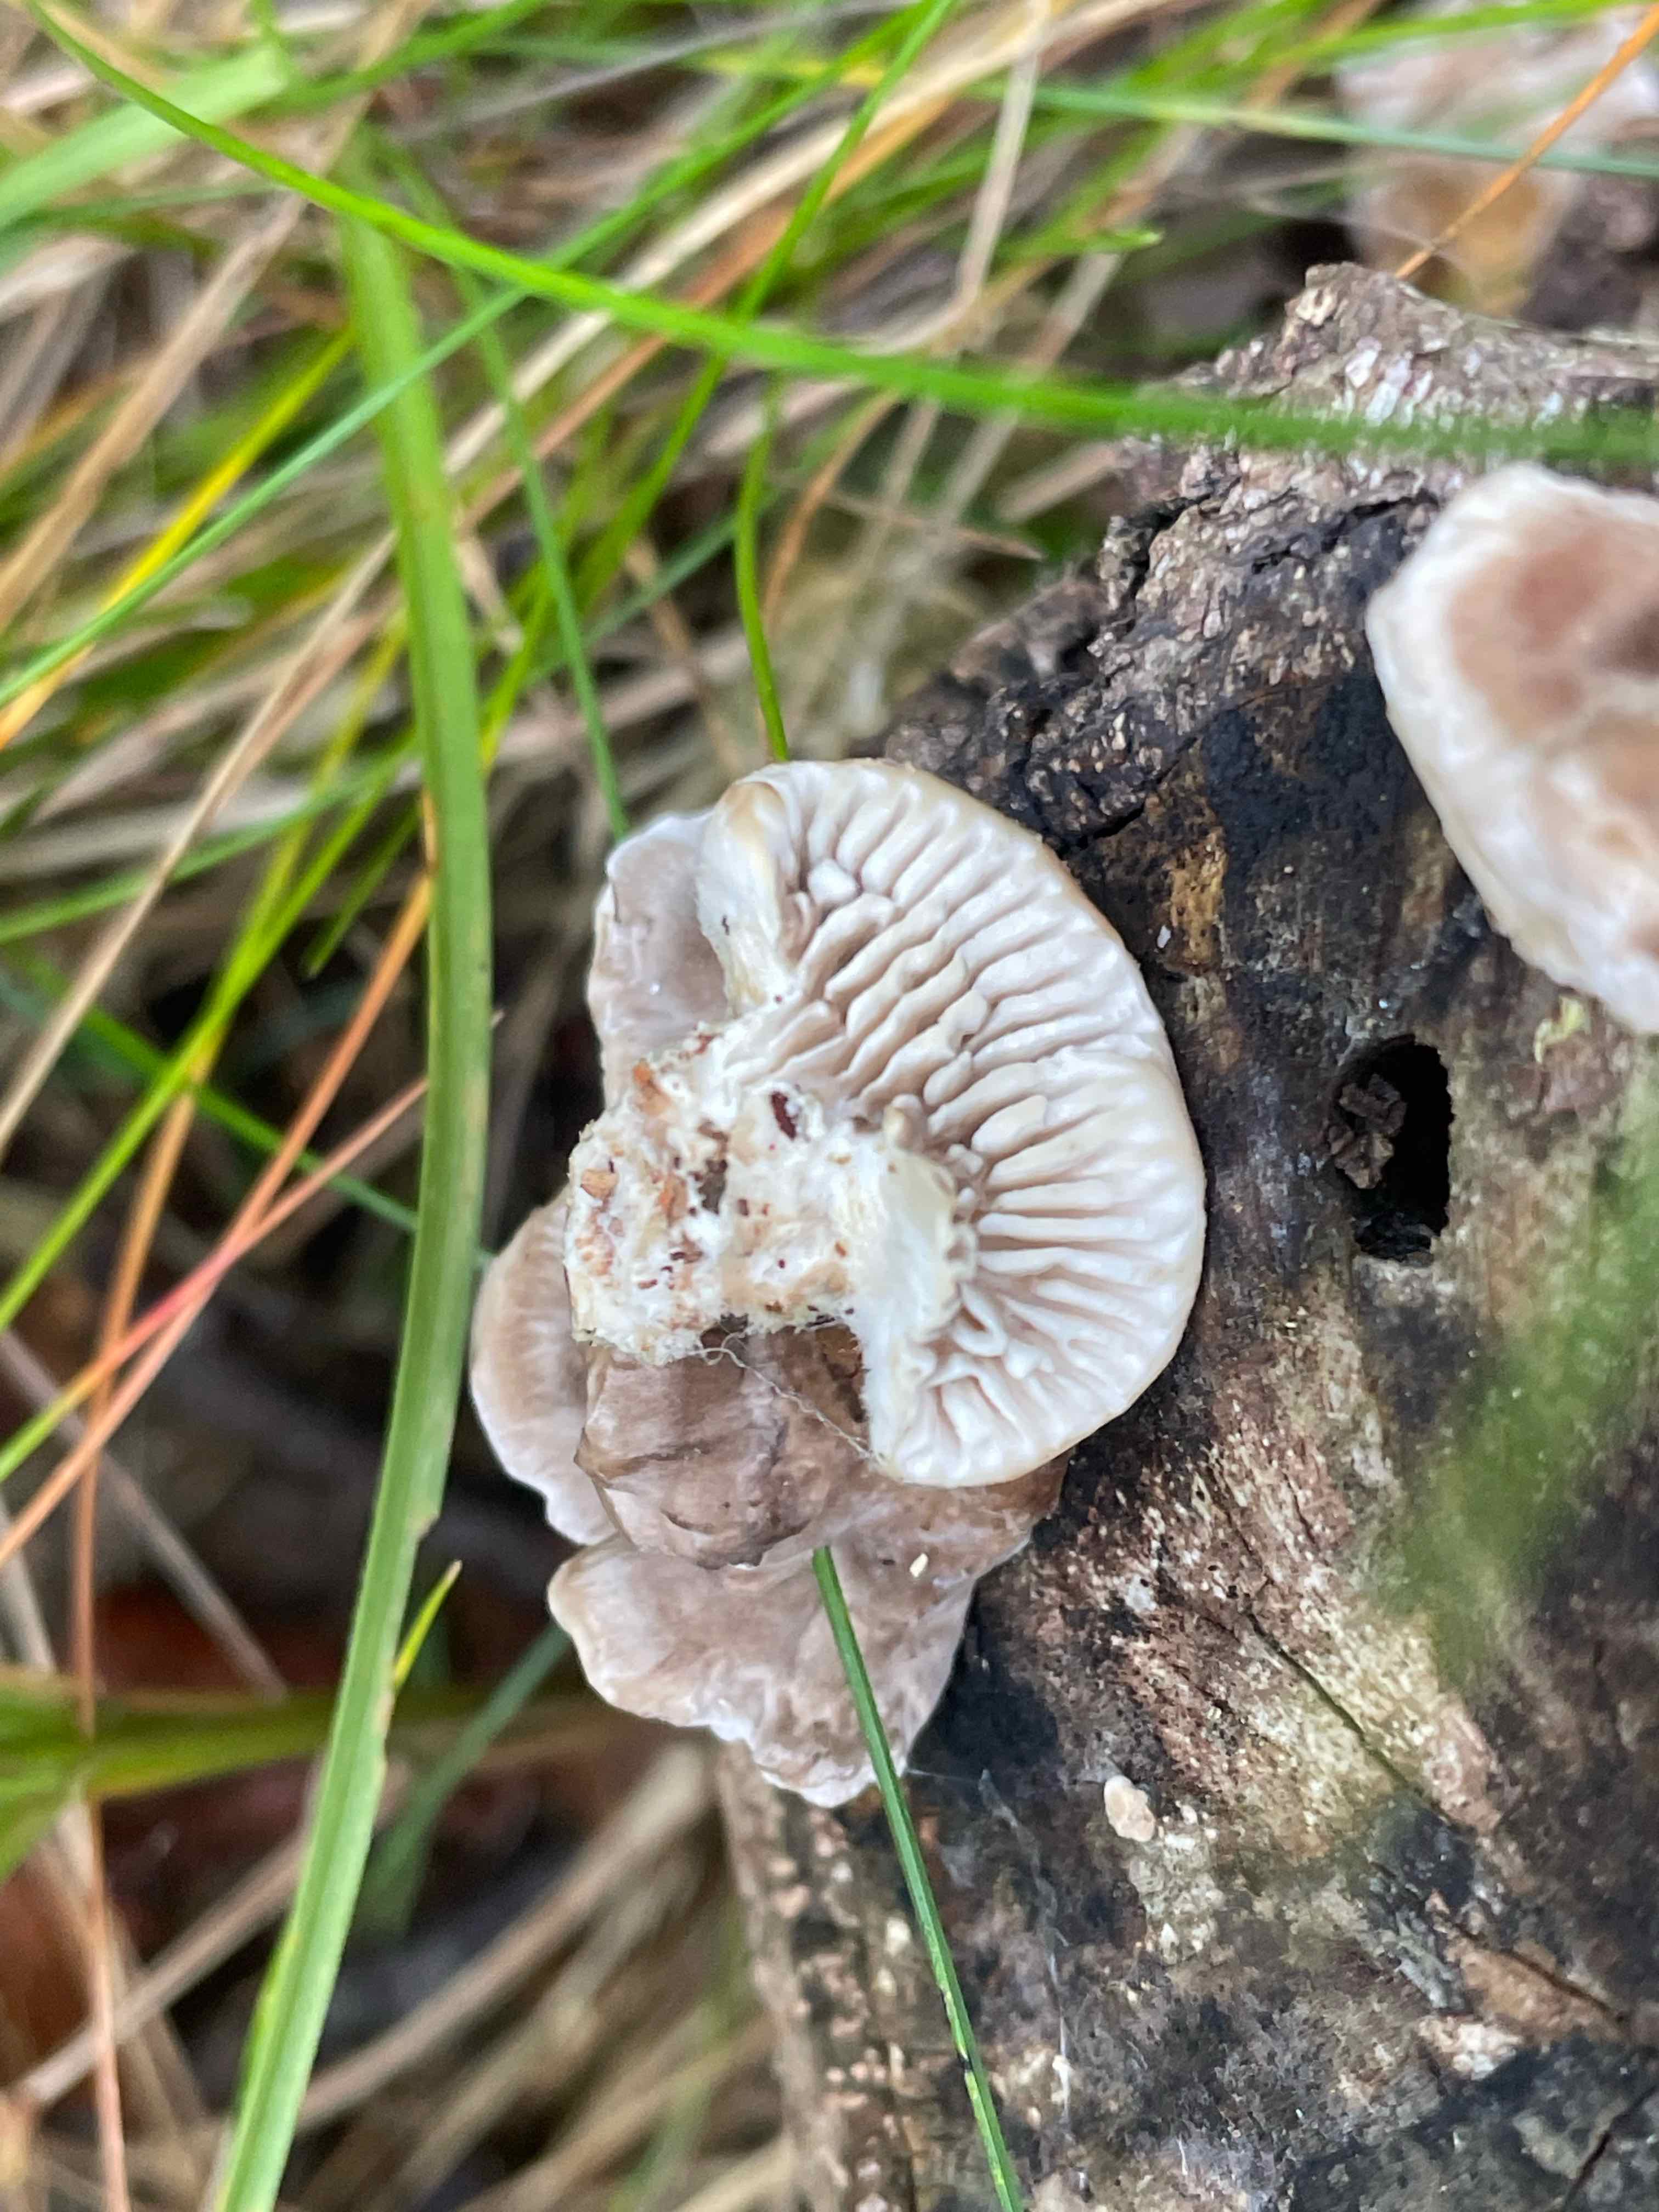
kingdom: Fungi
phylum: Basidiomycota
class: Agaricomycetes
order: Polyporales
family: Polyporaceae
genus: Lenzites
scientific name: Lenzites betulinus
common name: birke-læderporesvamp
